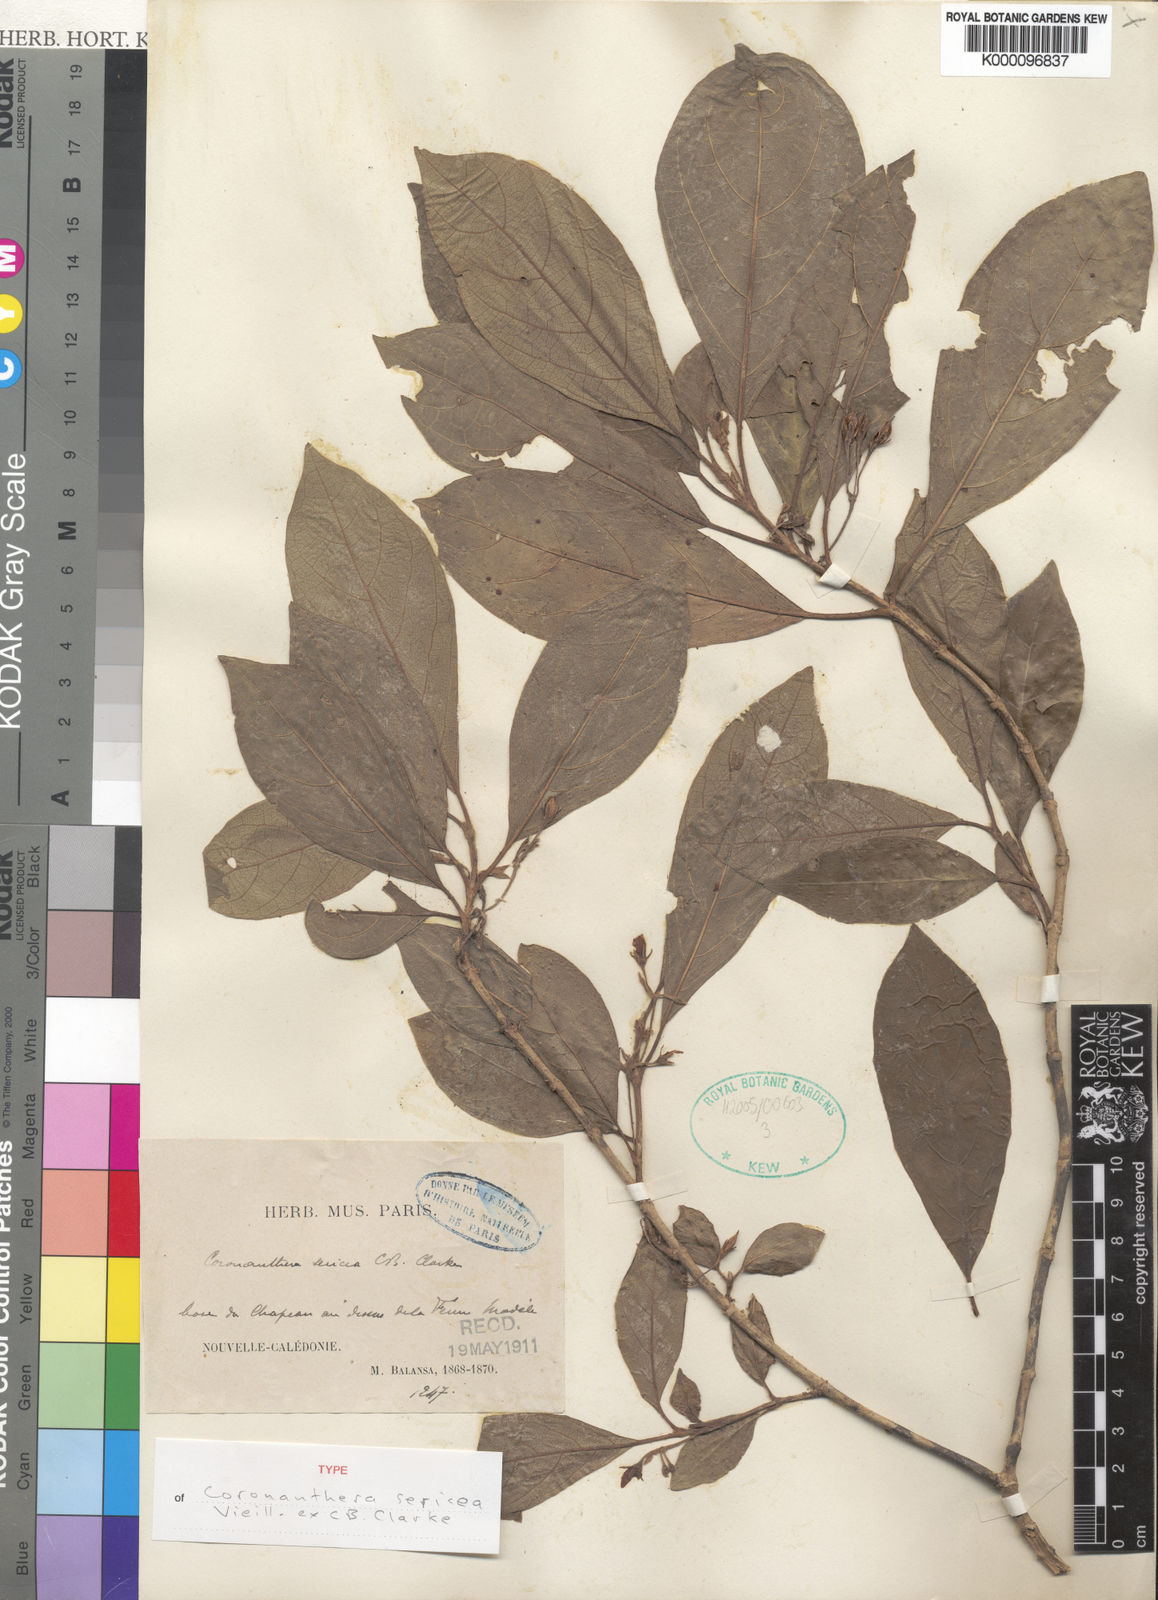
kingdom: Plantae
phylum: Tracheophyta
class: Magnoliopsida
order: Lamiales
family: Gesneriaceae
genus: Coronanthera
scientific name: Coronanthera sericea
